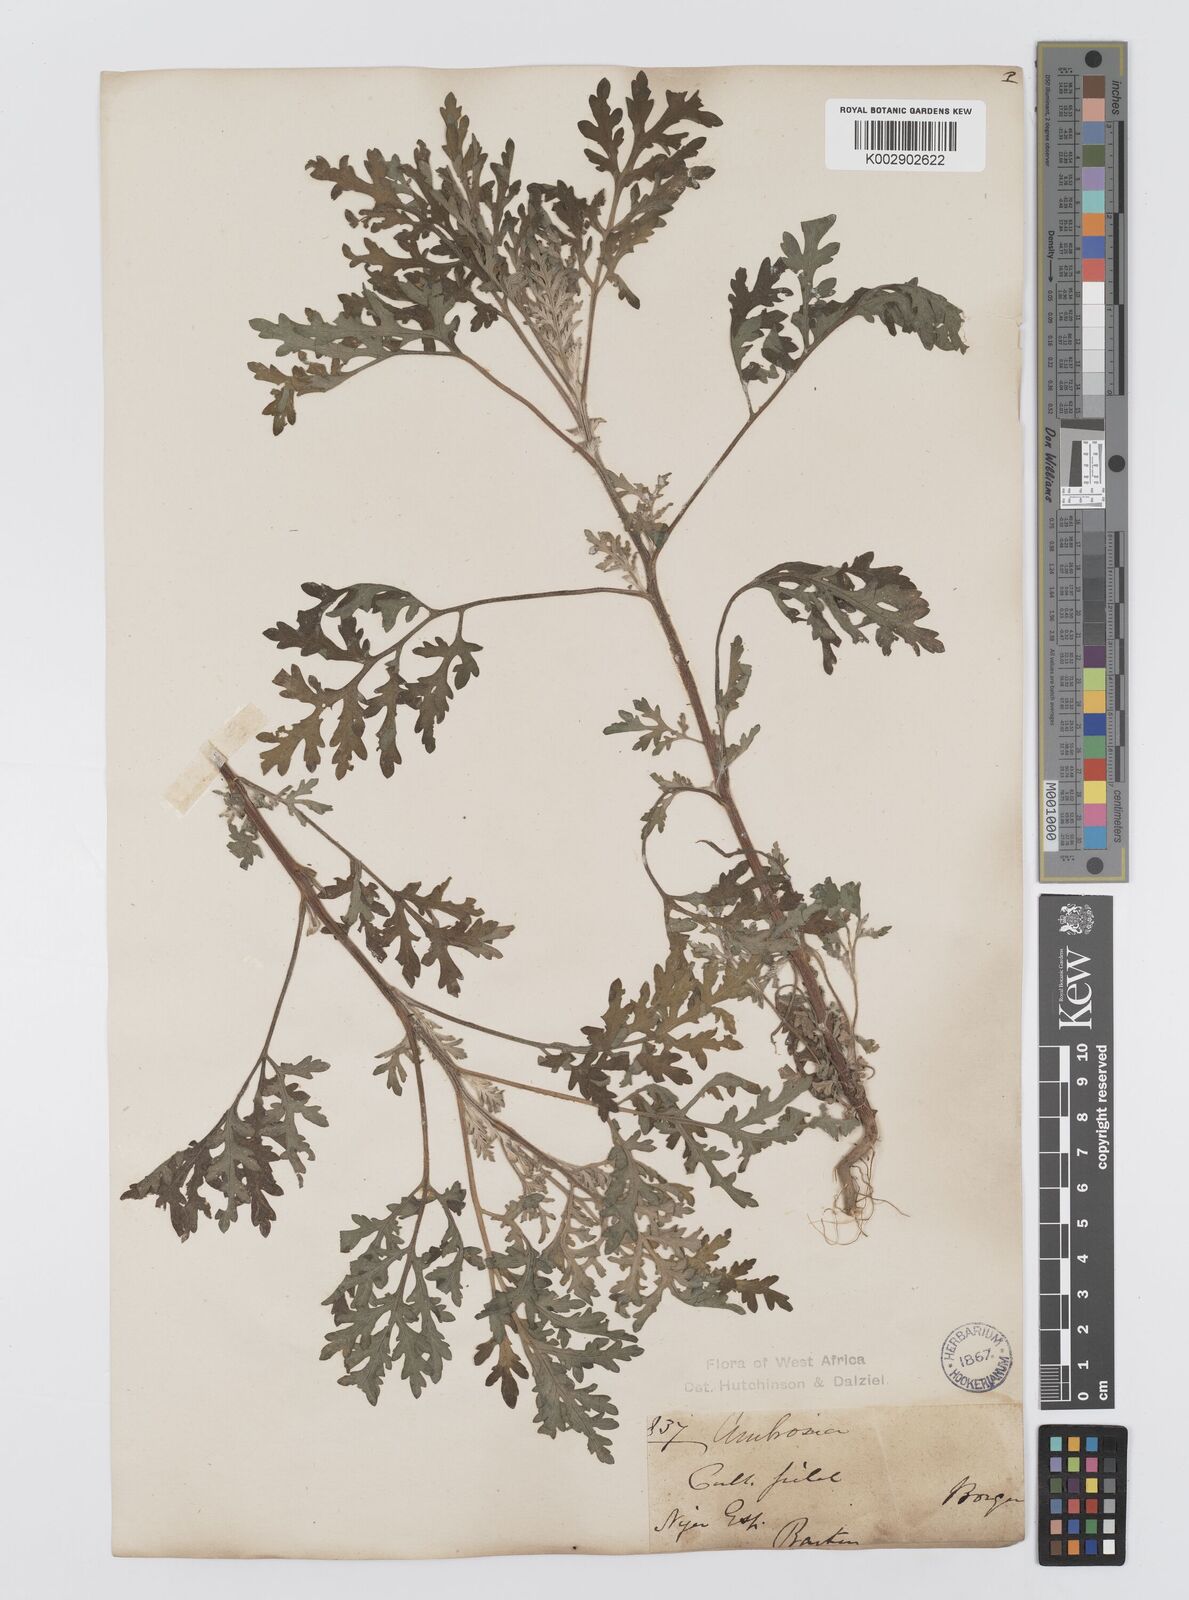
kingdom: Plantae
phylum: Tracheophyta
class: Magnoliopsida
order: Asterales
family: Asteraceae
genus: Ambrosia
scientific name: Ambrosia maritima
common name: Sea ambrosia
